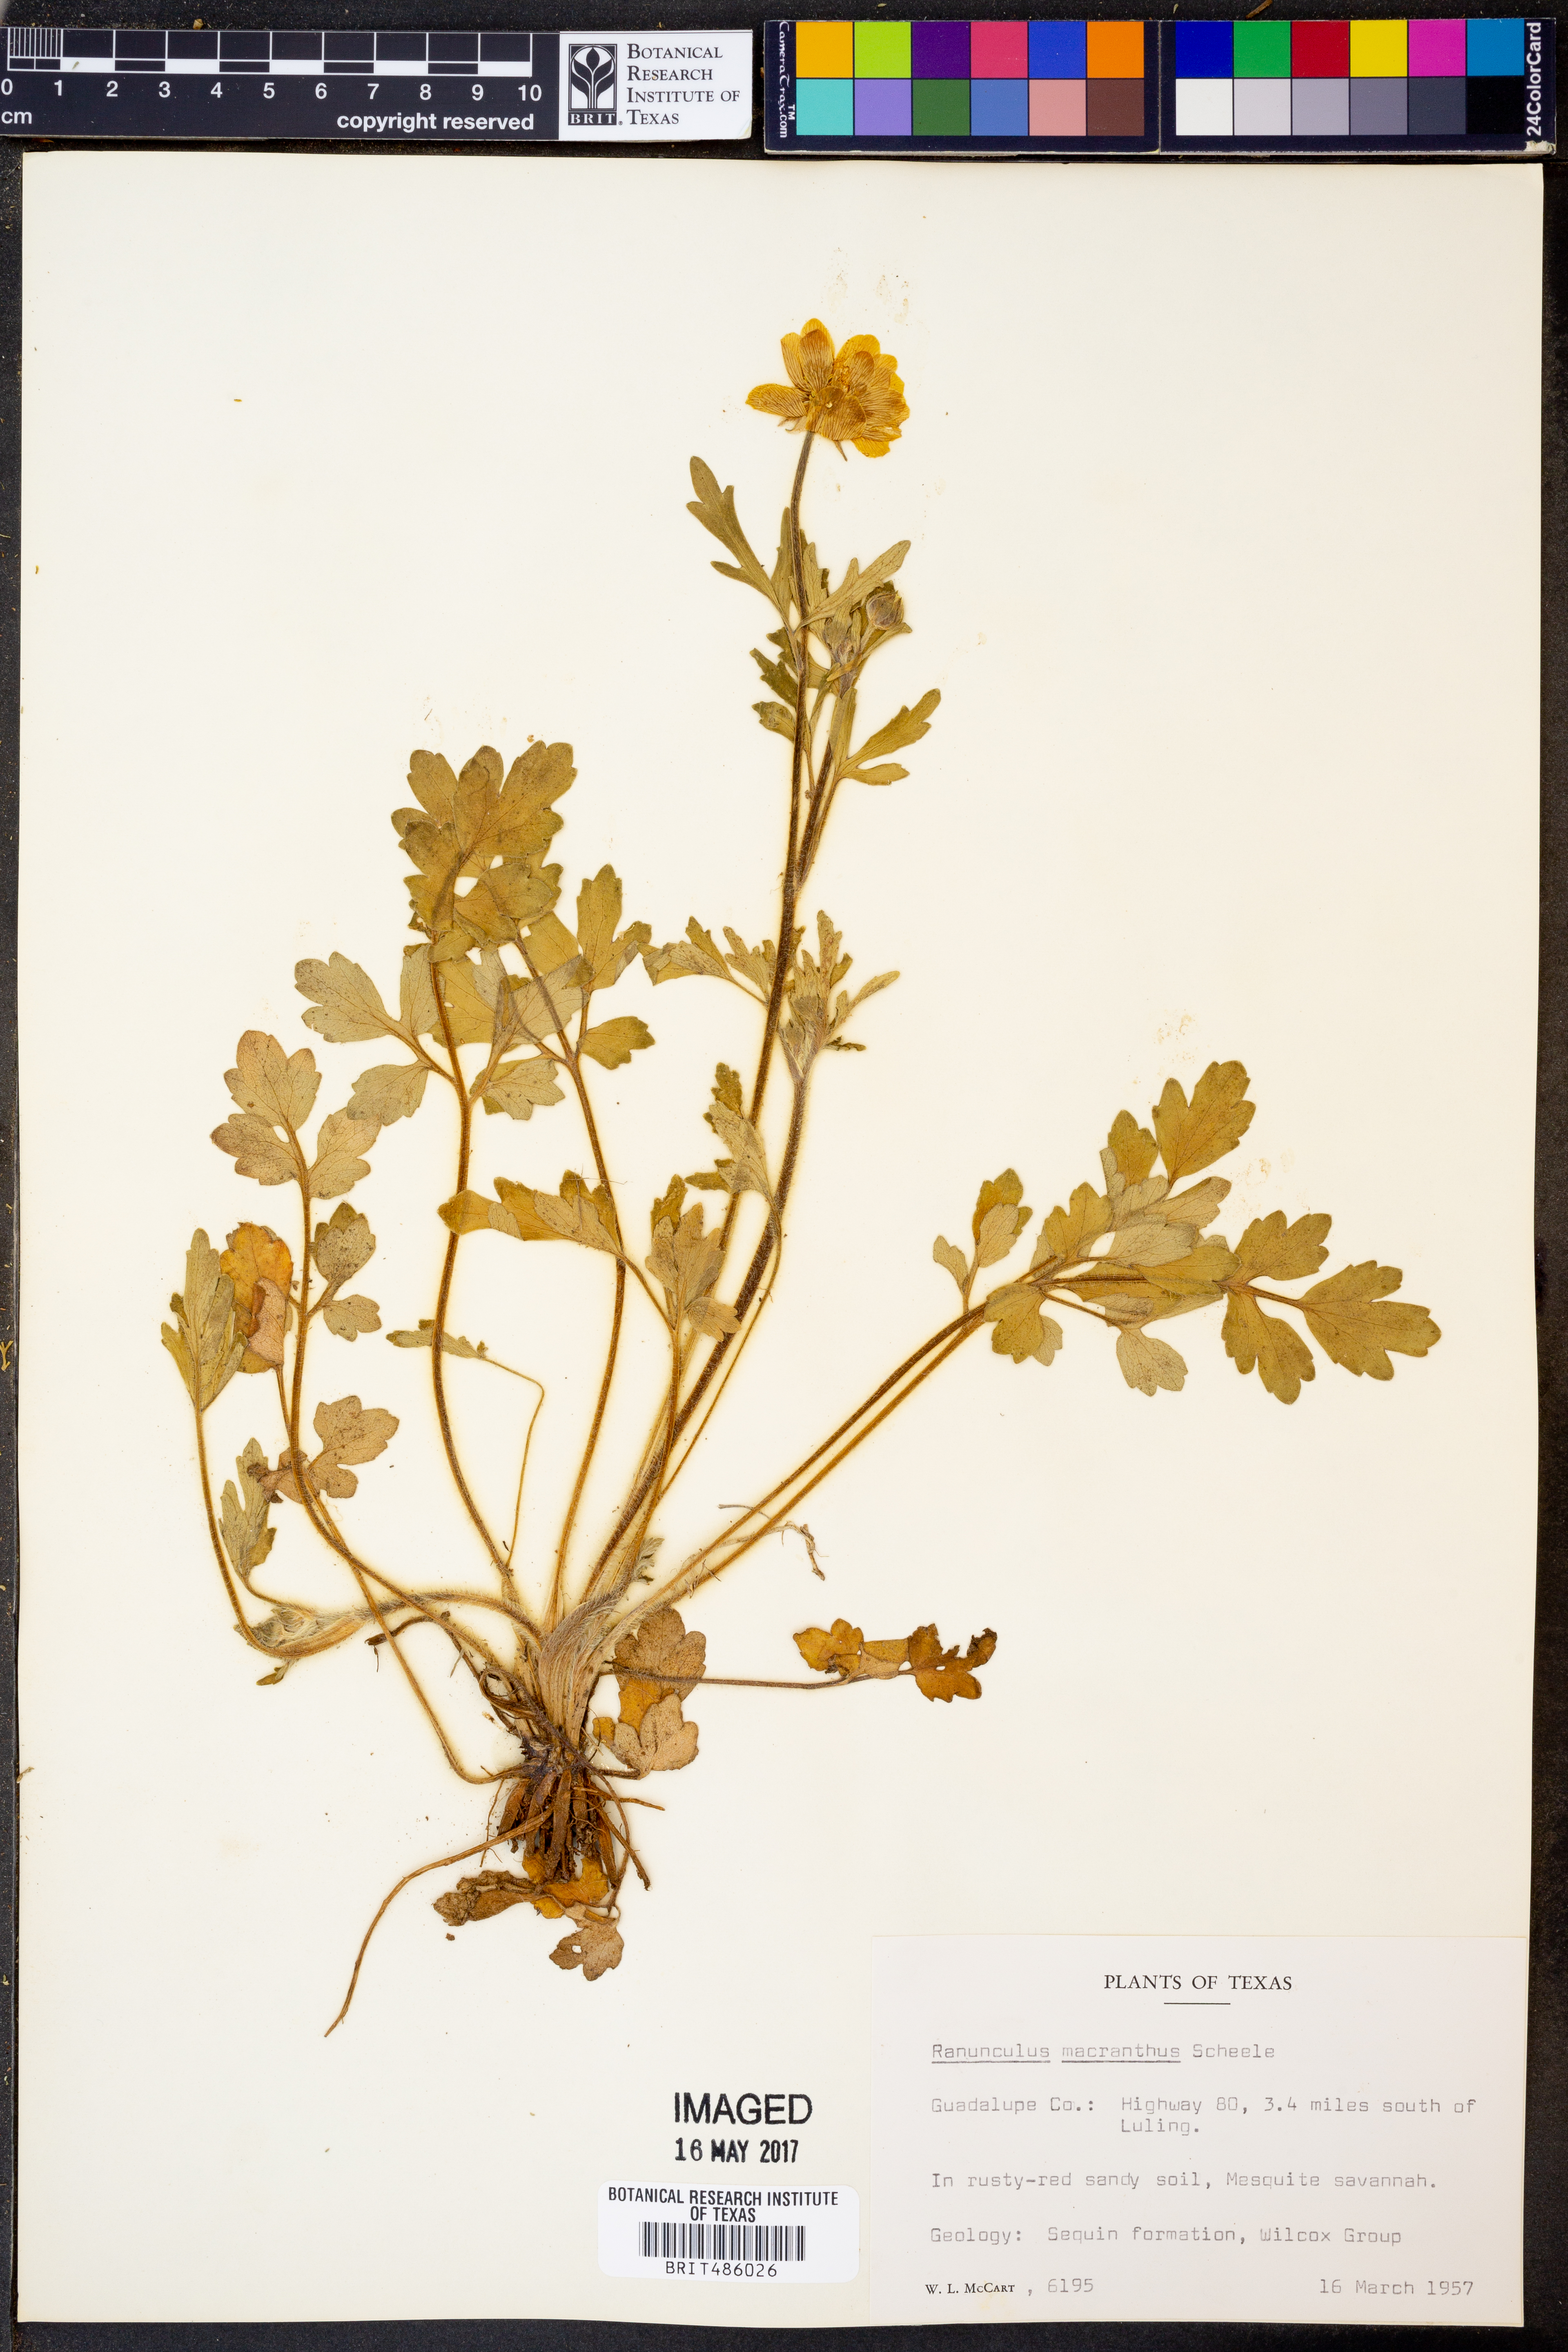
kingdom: Plantae
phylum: Tracheophyta
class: Magnoliopsida
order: Ranunculales
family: Ranunculaceae
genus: Ranunculus
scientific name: Ranunculus macranthus
